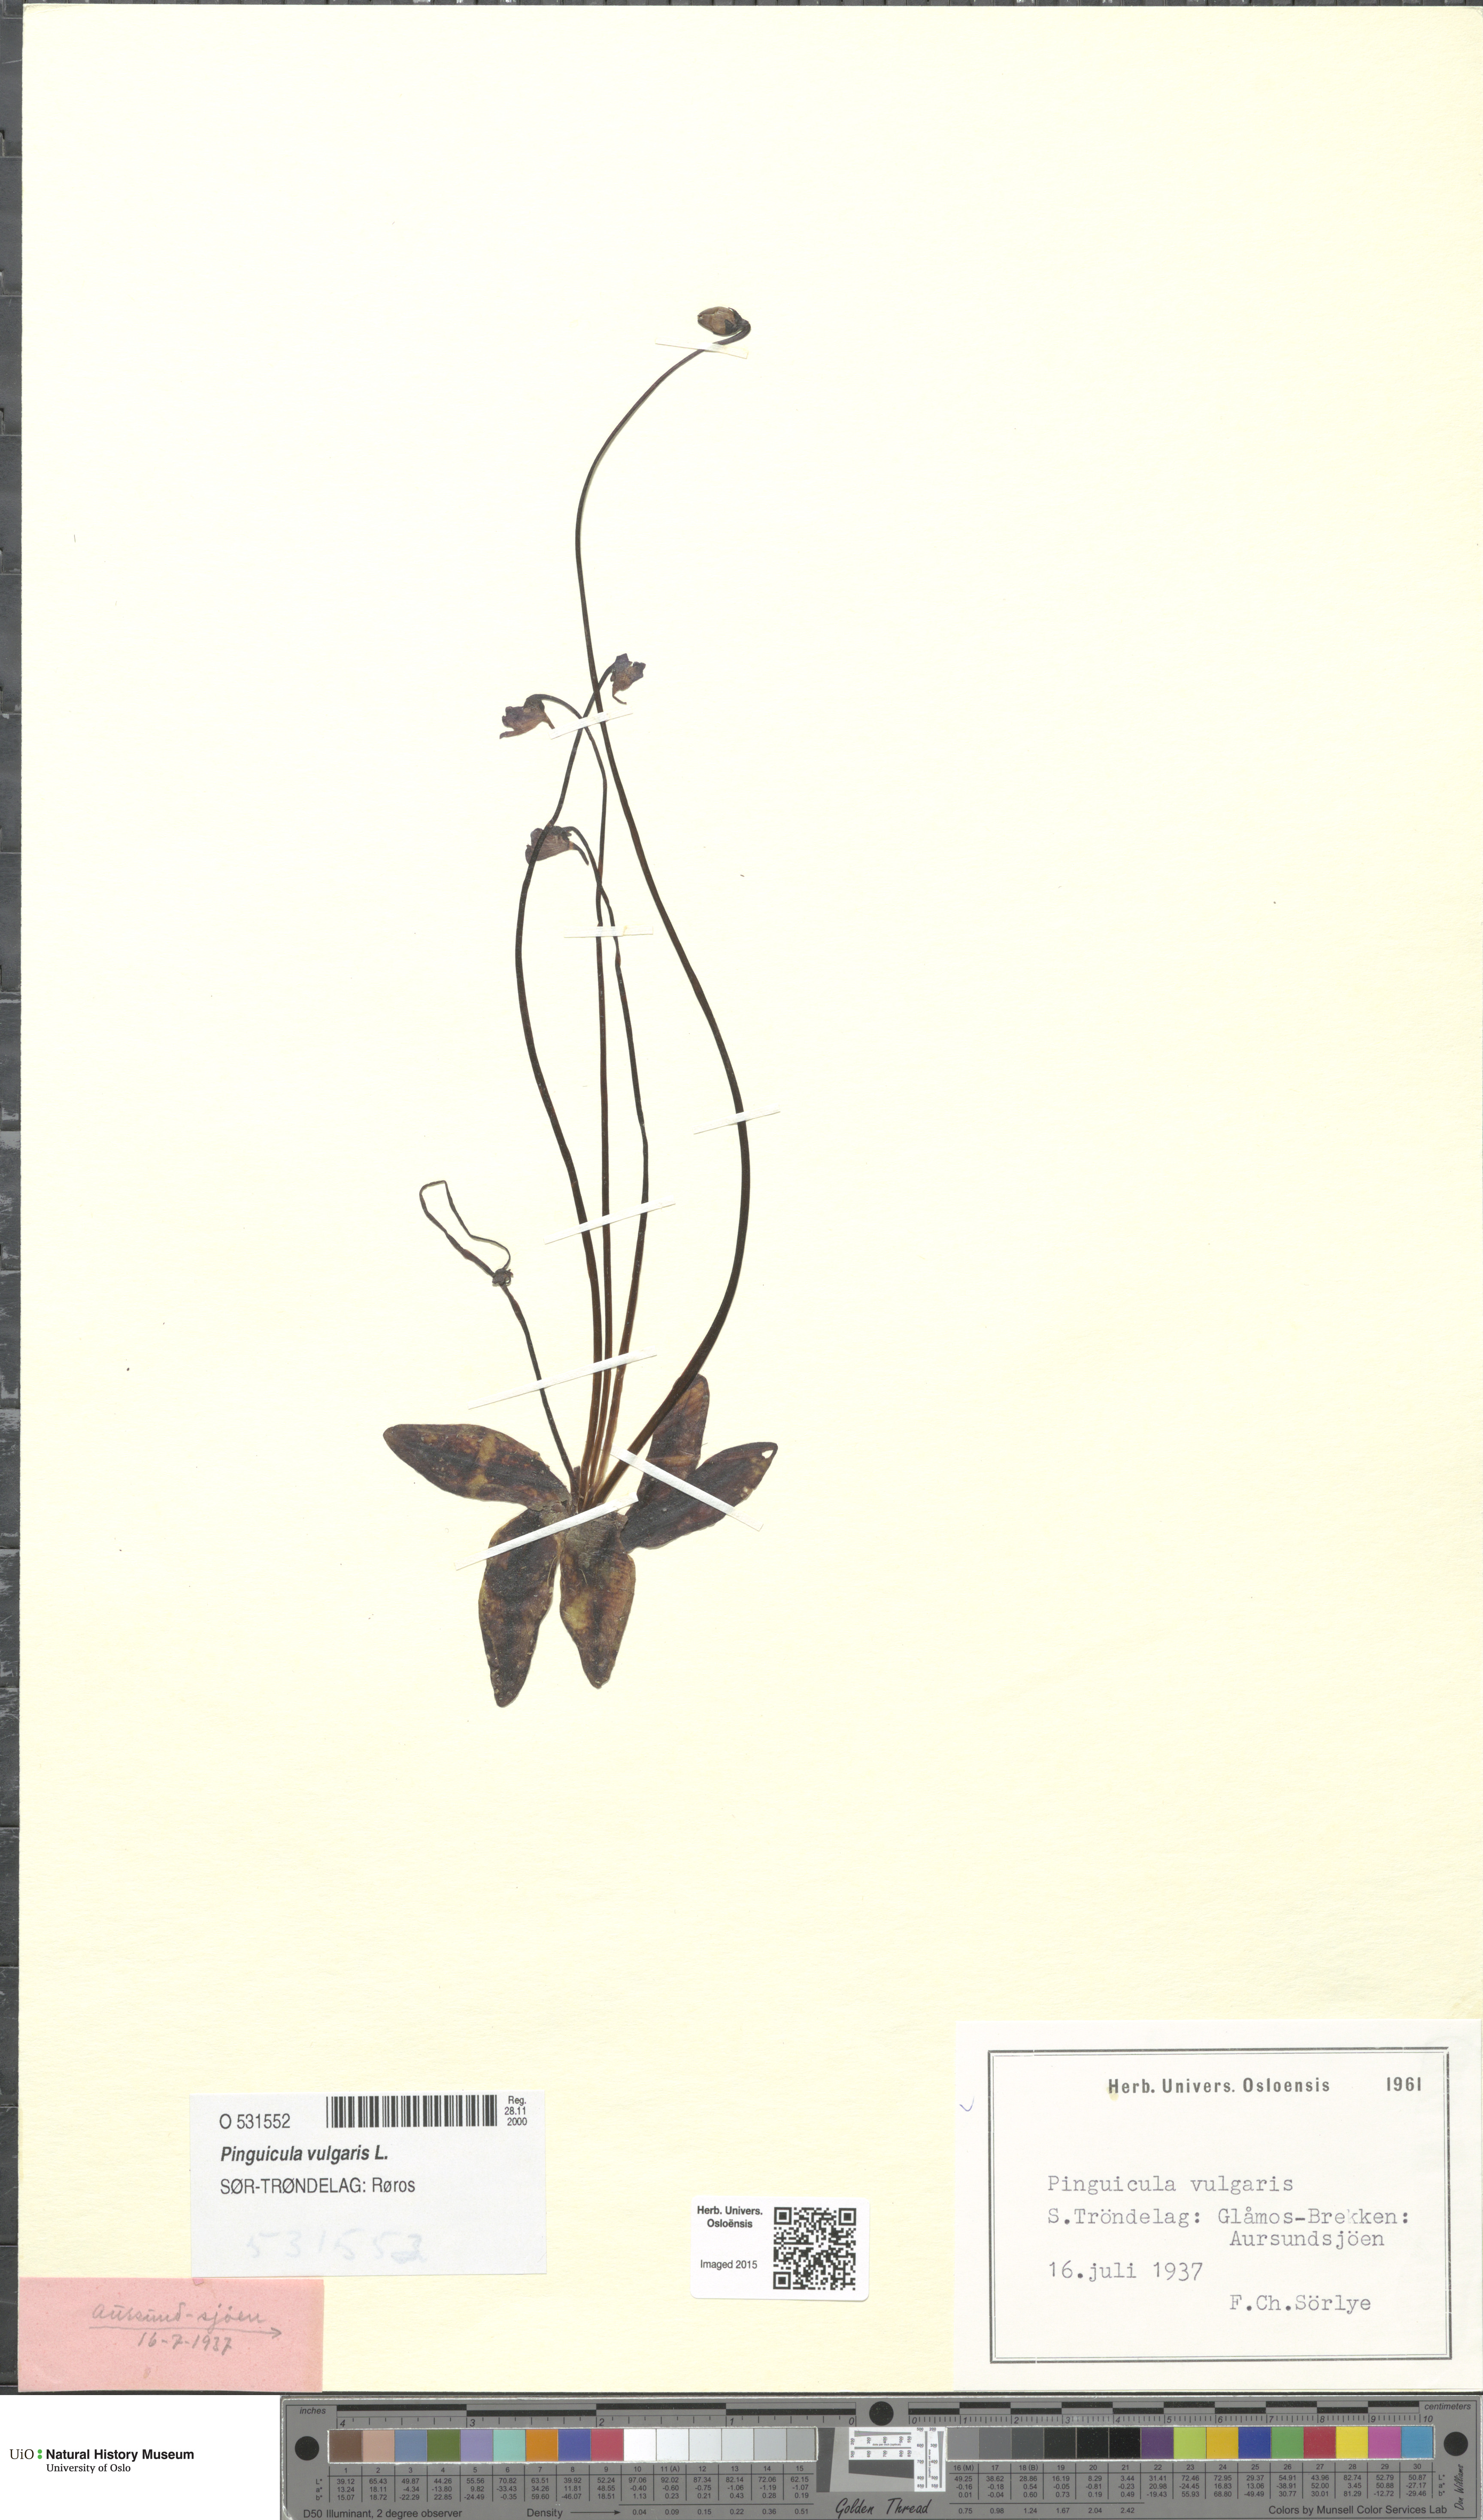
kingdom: Plantae
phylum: Tracheophyta
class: Magnoliopsida
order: Lamiales
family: Lentibulariaceae
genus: Pinguicula
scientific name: Pinguicula vulgaris
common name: Common butterwort
